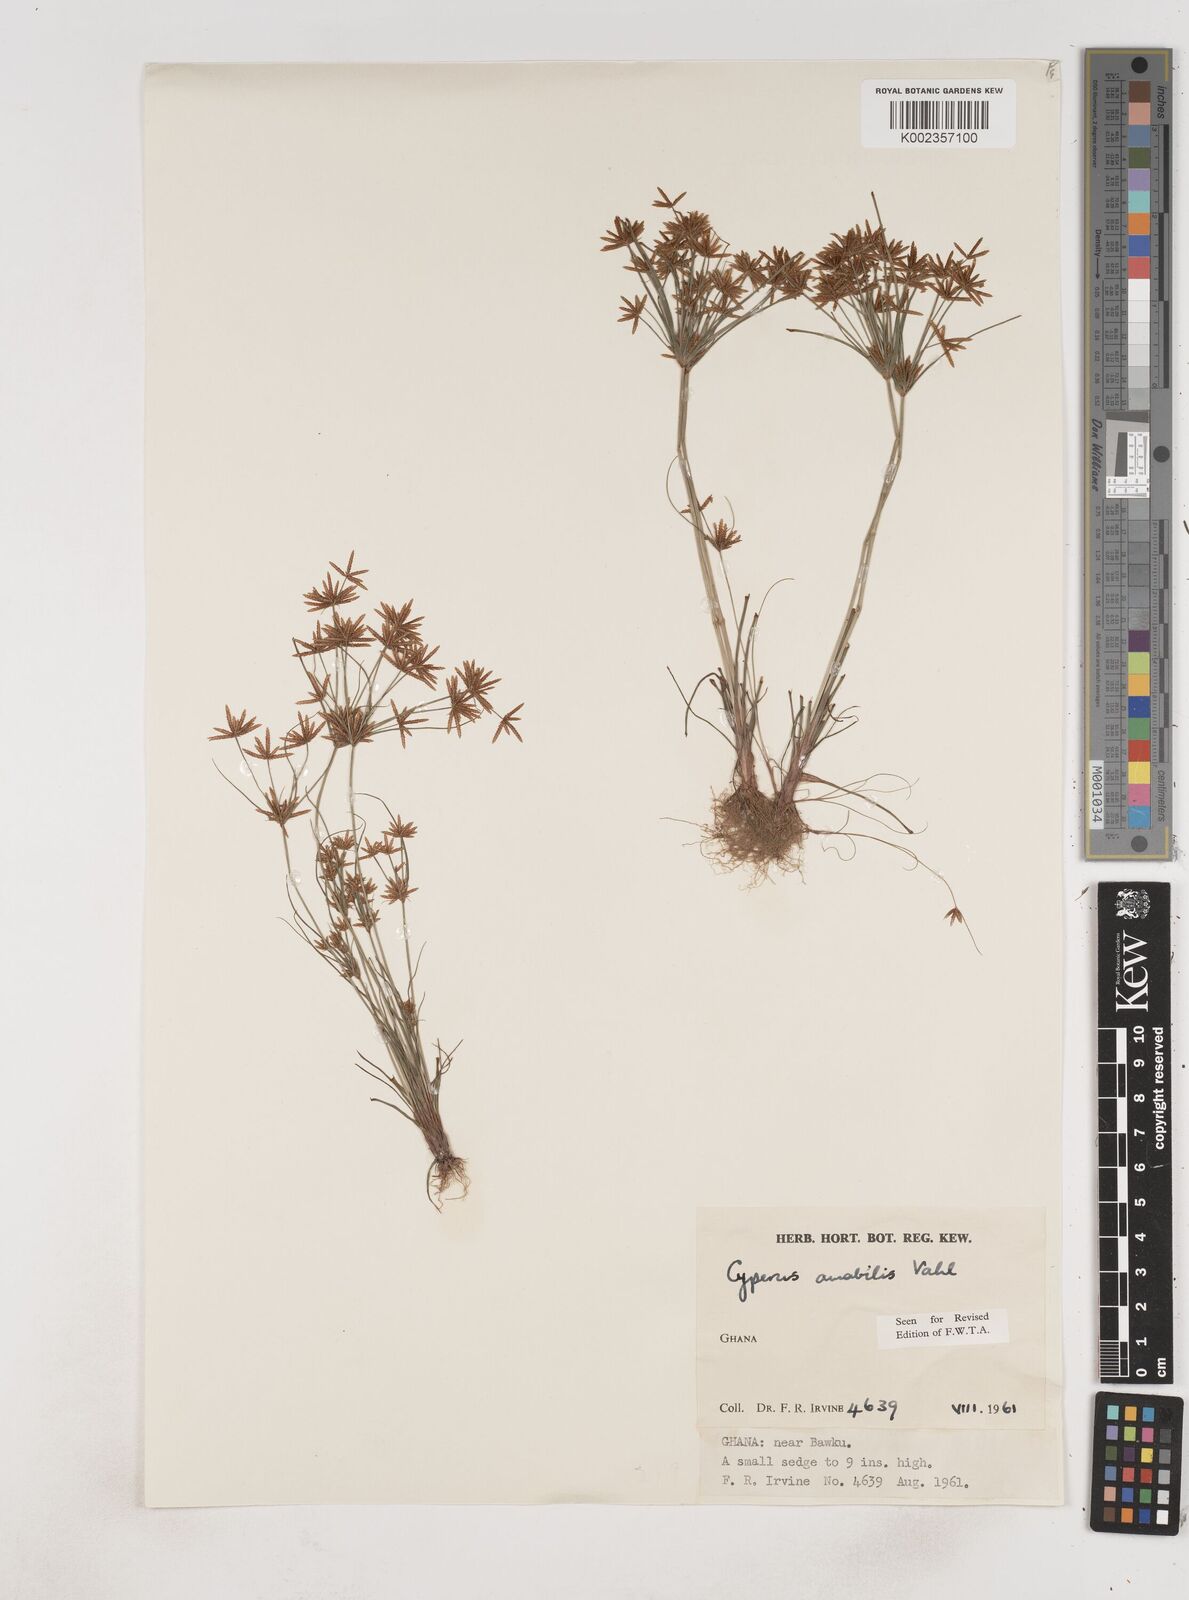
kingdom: Plantae
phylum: Tracheophyta
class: Liliopsida
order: Poales
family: Cyperaceae
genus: Cyperus
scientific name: Cyperus amabilis
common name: Foothill flat sedge
